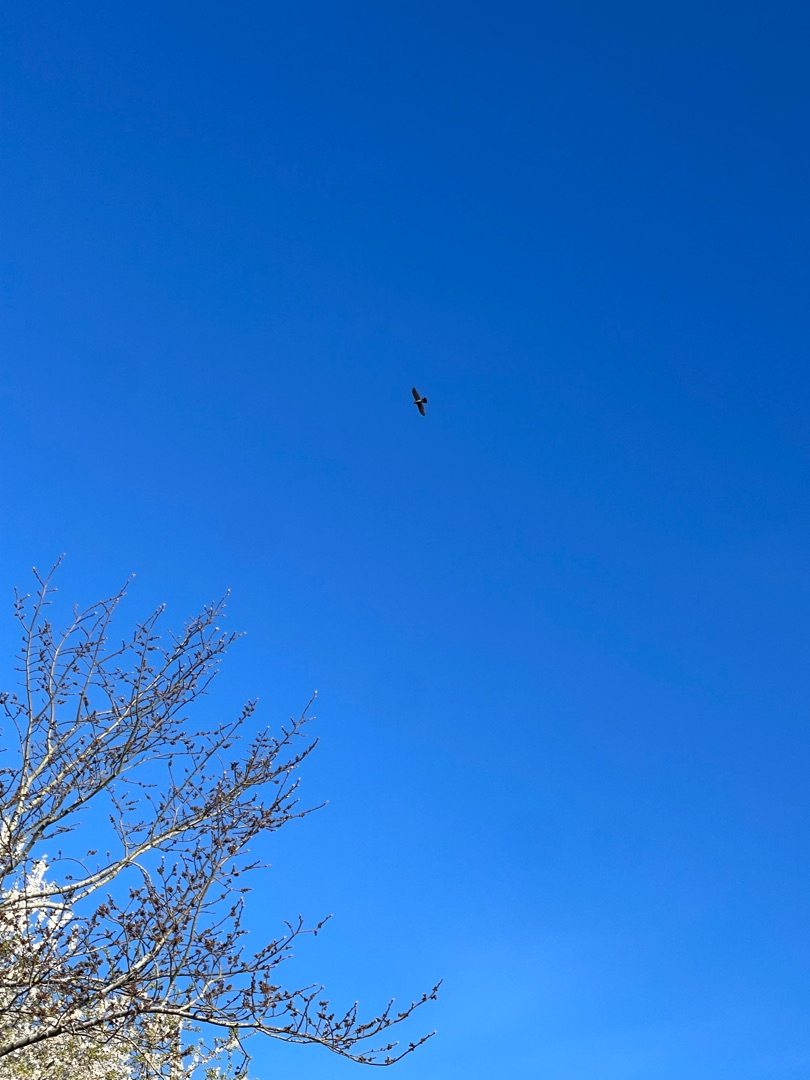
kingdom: Animalia
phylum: Chordata
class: Aves
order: Accipitriformes
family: Accipitridae
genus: Accipiter
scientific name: Accipiter nisus
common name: Spurvehøg
